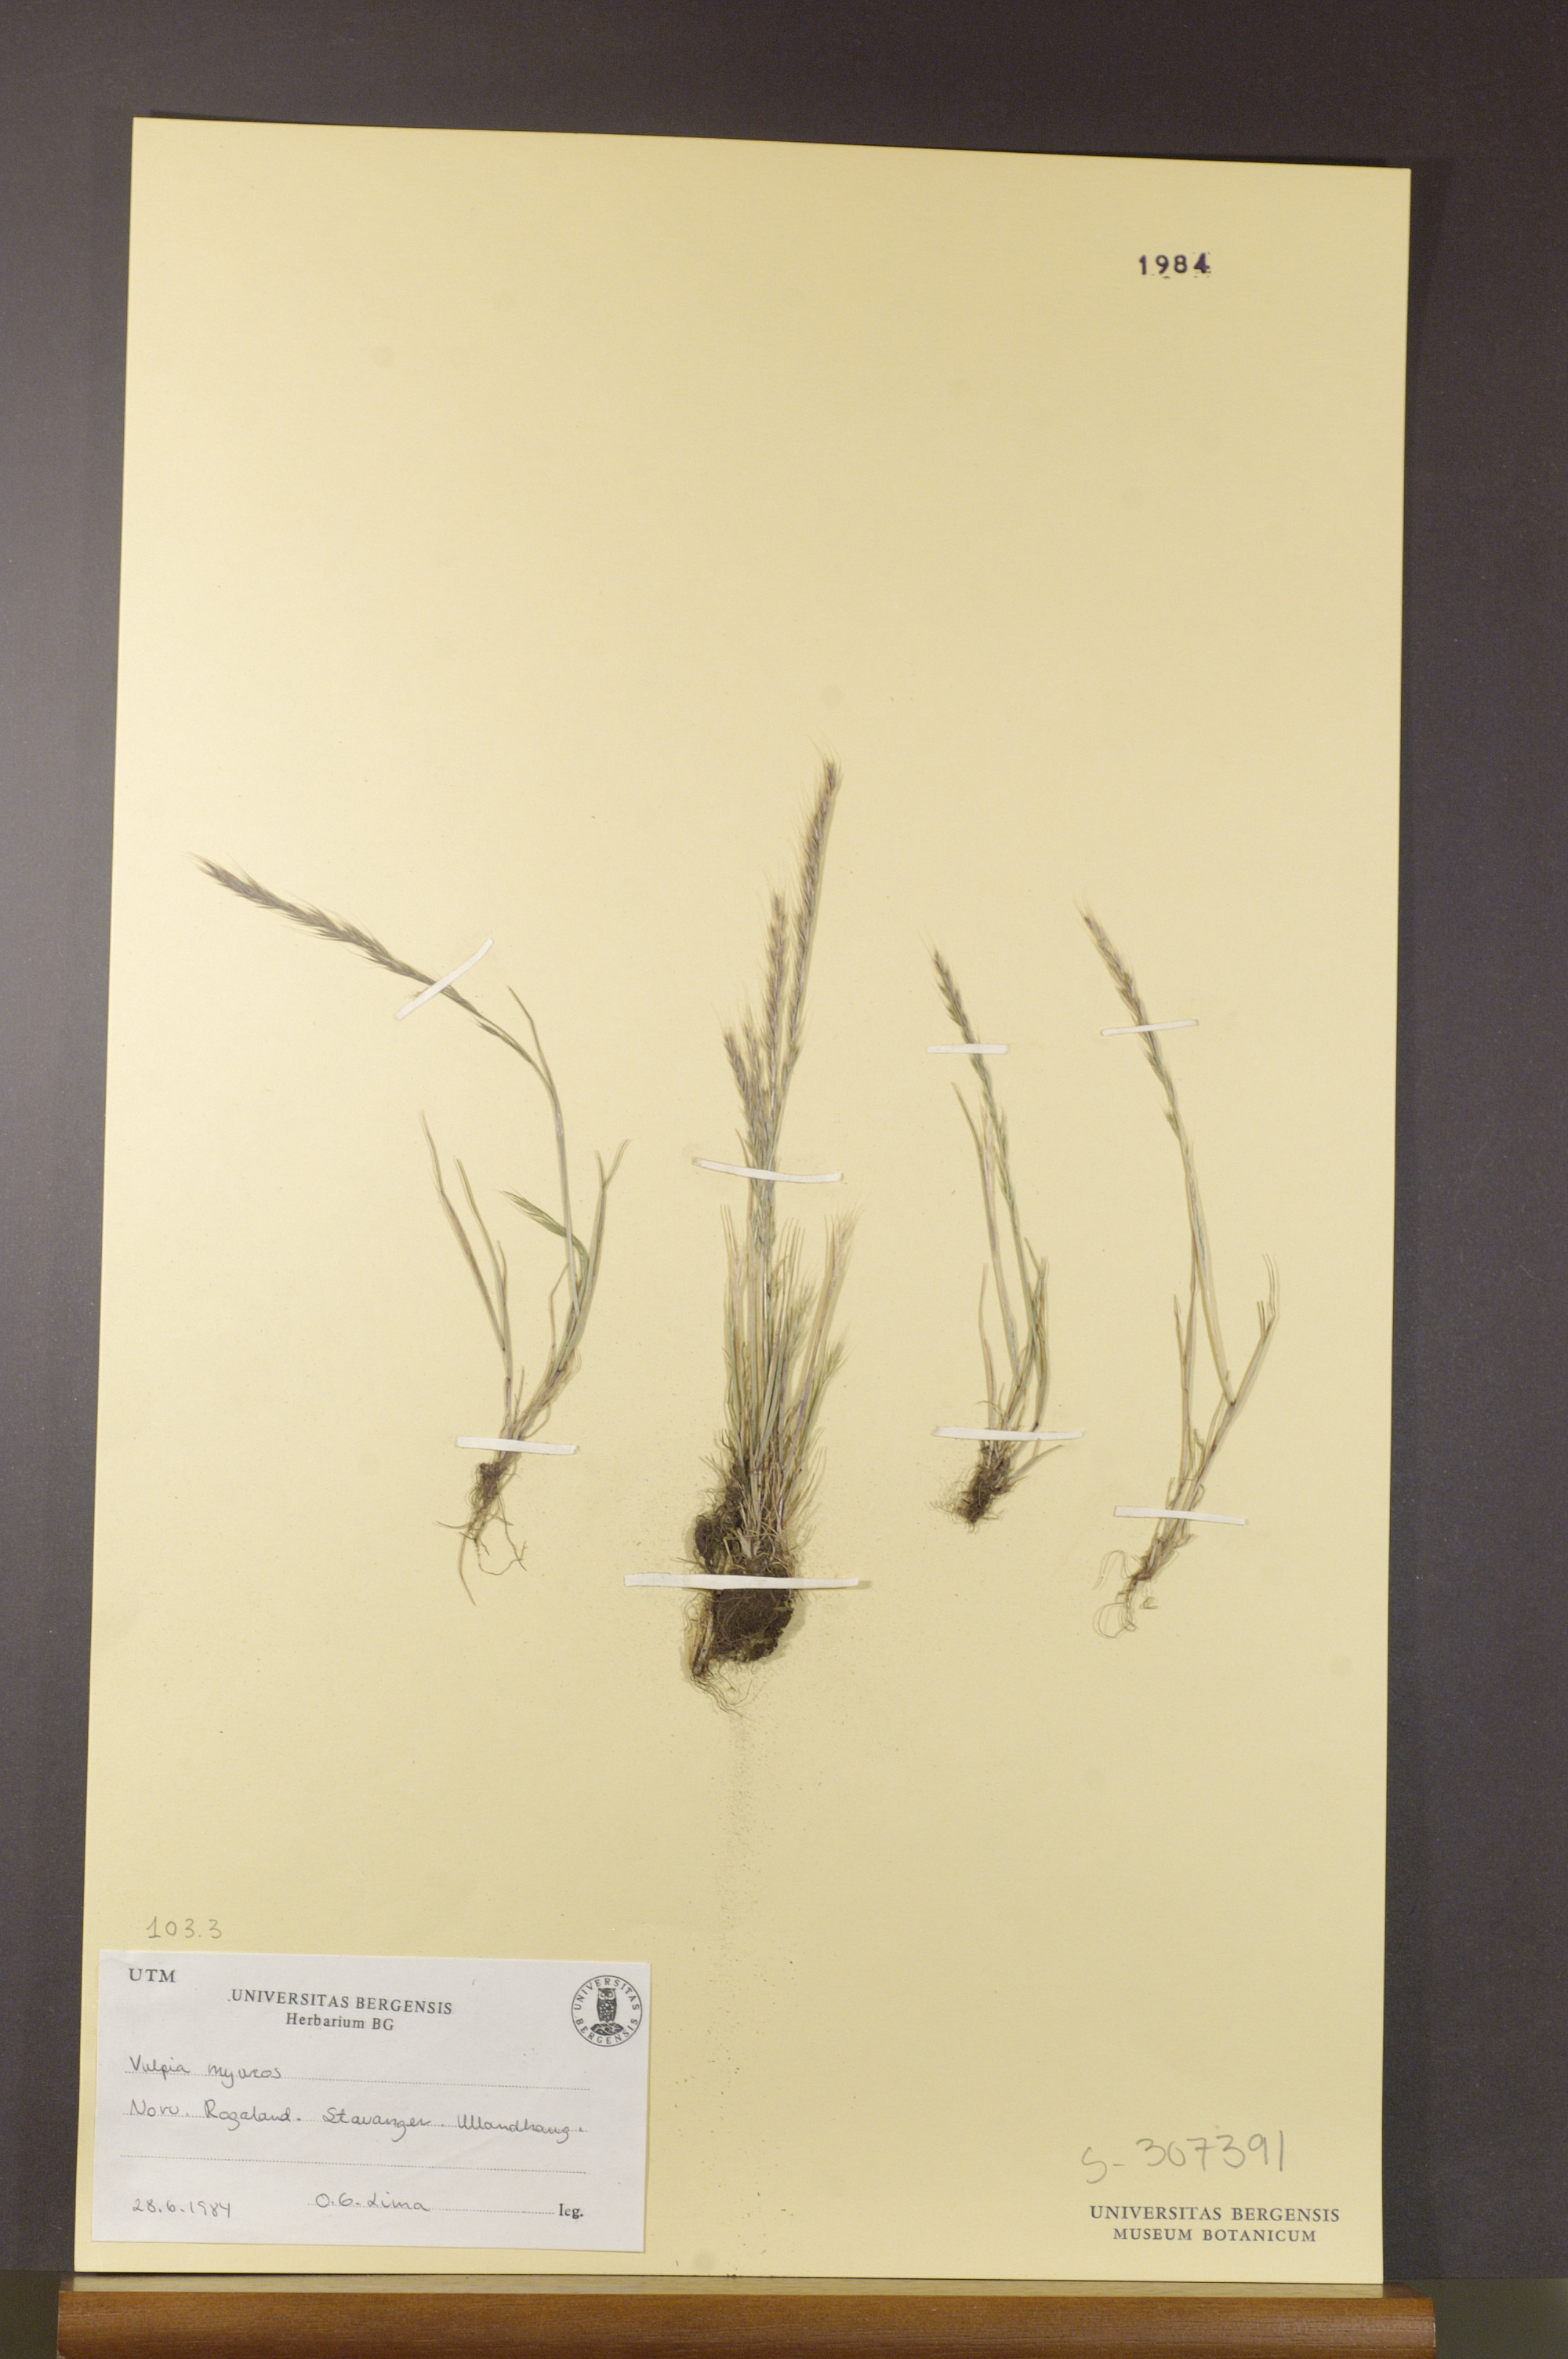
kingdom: Plantae
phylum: Tracheophyta
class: Liliopsida
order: Poales
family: Poaceae
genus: Festuca
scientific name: Festuca myuros
